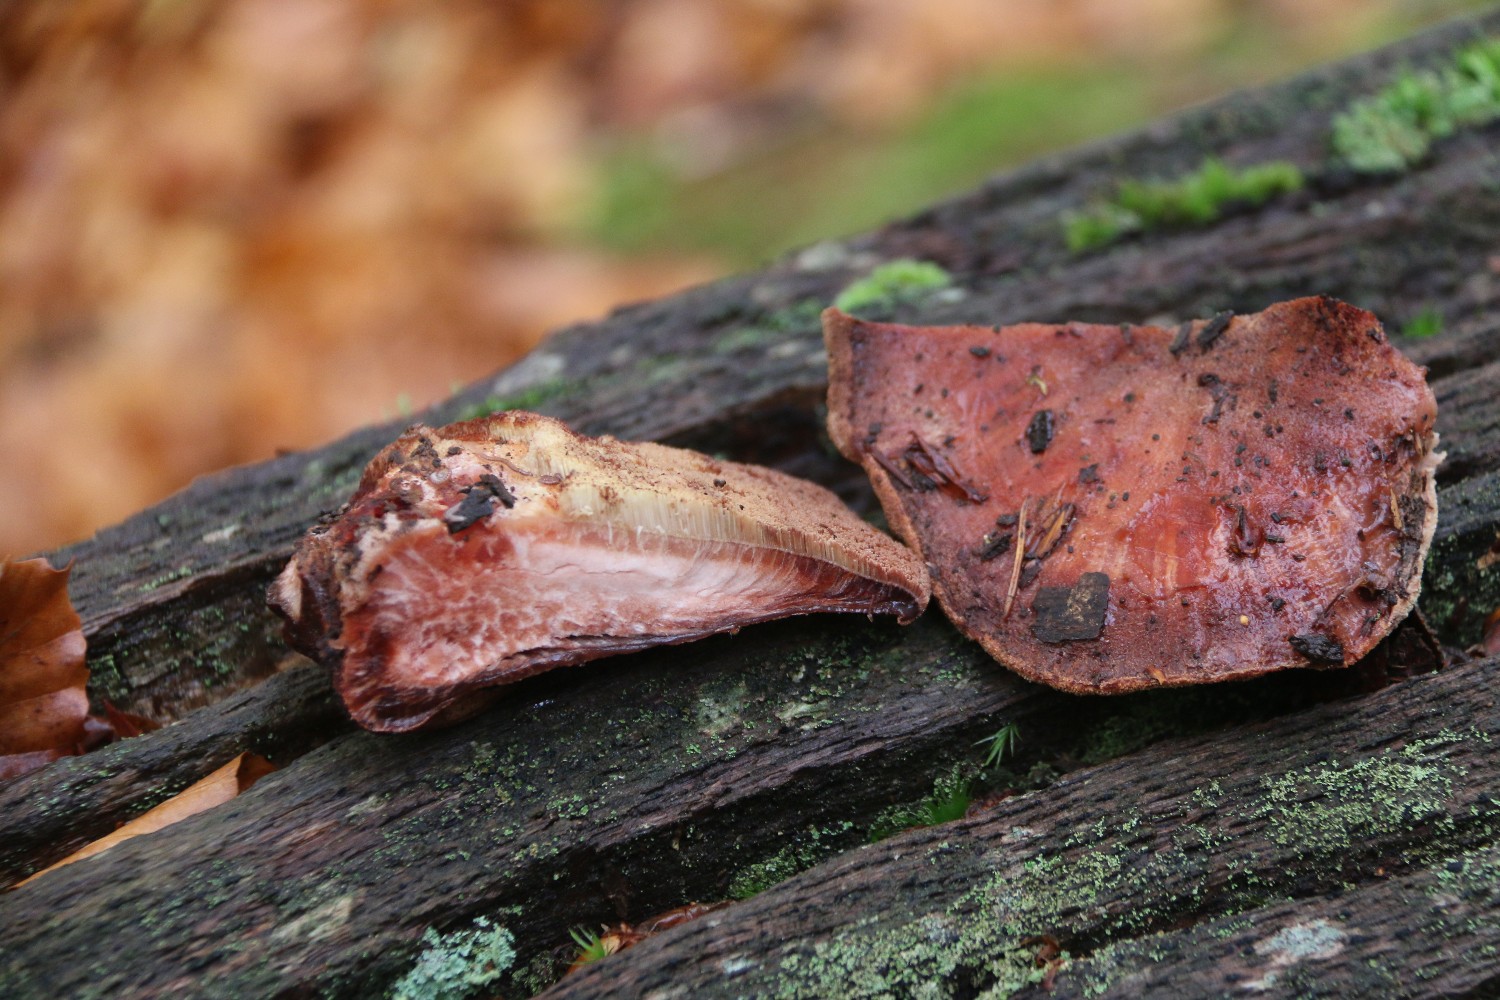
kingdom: Fungi
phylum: Basidiomycota
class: Agaricomycetes
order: Agaricales
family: Fistulinaceae
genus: Fistulina
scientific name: Fistulina hepatica
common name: oksetunge
